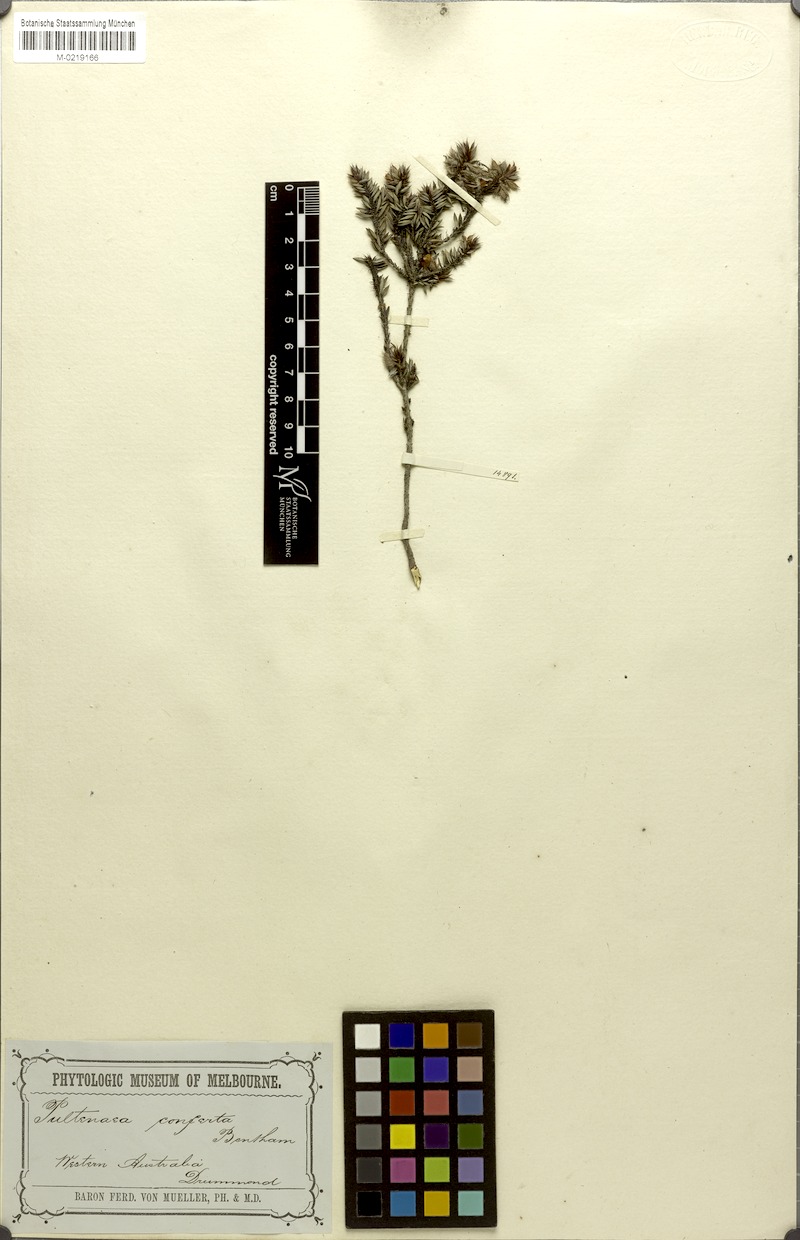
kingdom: Plantae
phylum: Tracheophyta
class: Magnoliopsida
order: Fabales
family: Fabaceae
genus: Pultenaea
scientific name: Pultenaea purpurea
